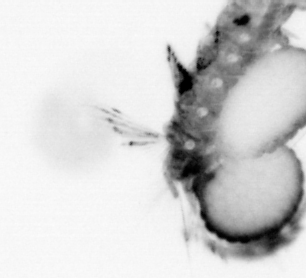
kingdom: Animalia
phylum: Arthropoda
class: Maxillopoda
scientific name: Maxillopoda
